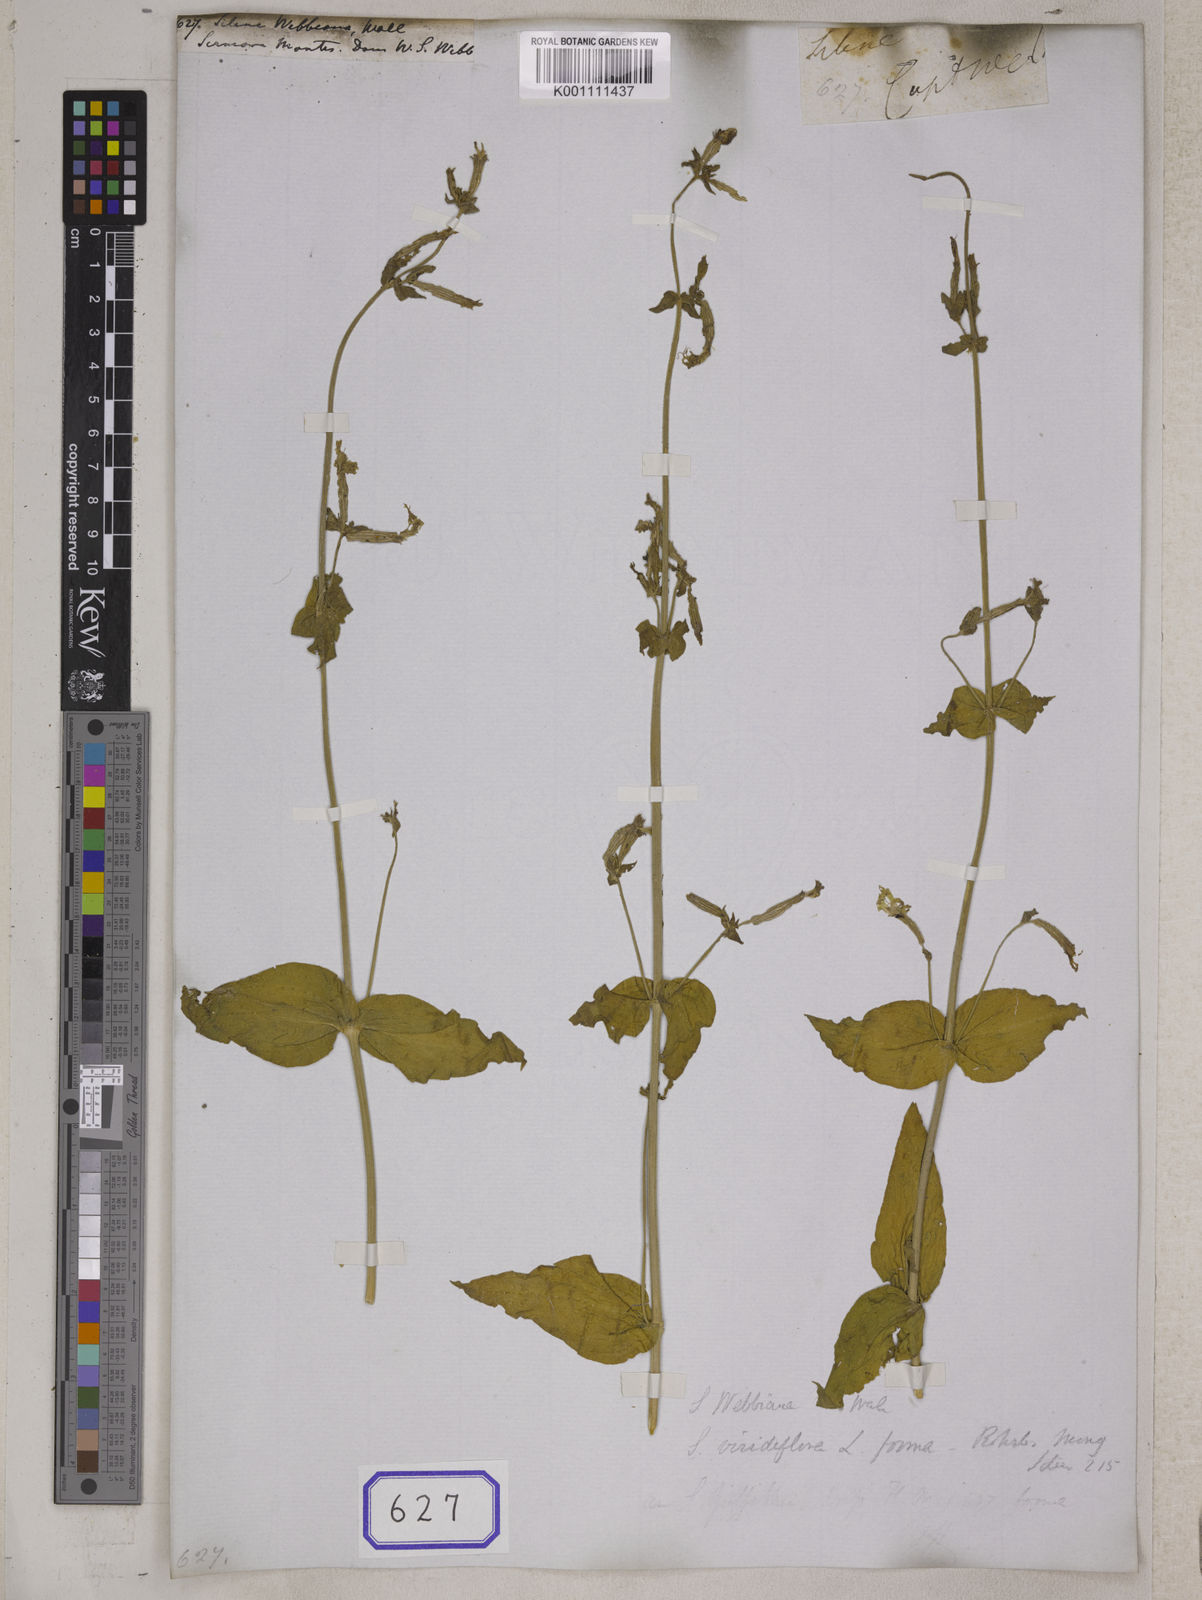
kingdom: Plantae
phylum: Tracheophyta
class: Magnoliopsida
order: Caryophyllales
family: Caryophyllaceae
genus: Silene
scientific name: Silene
